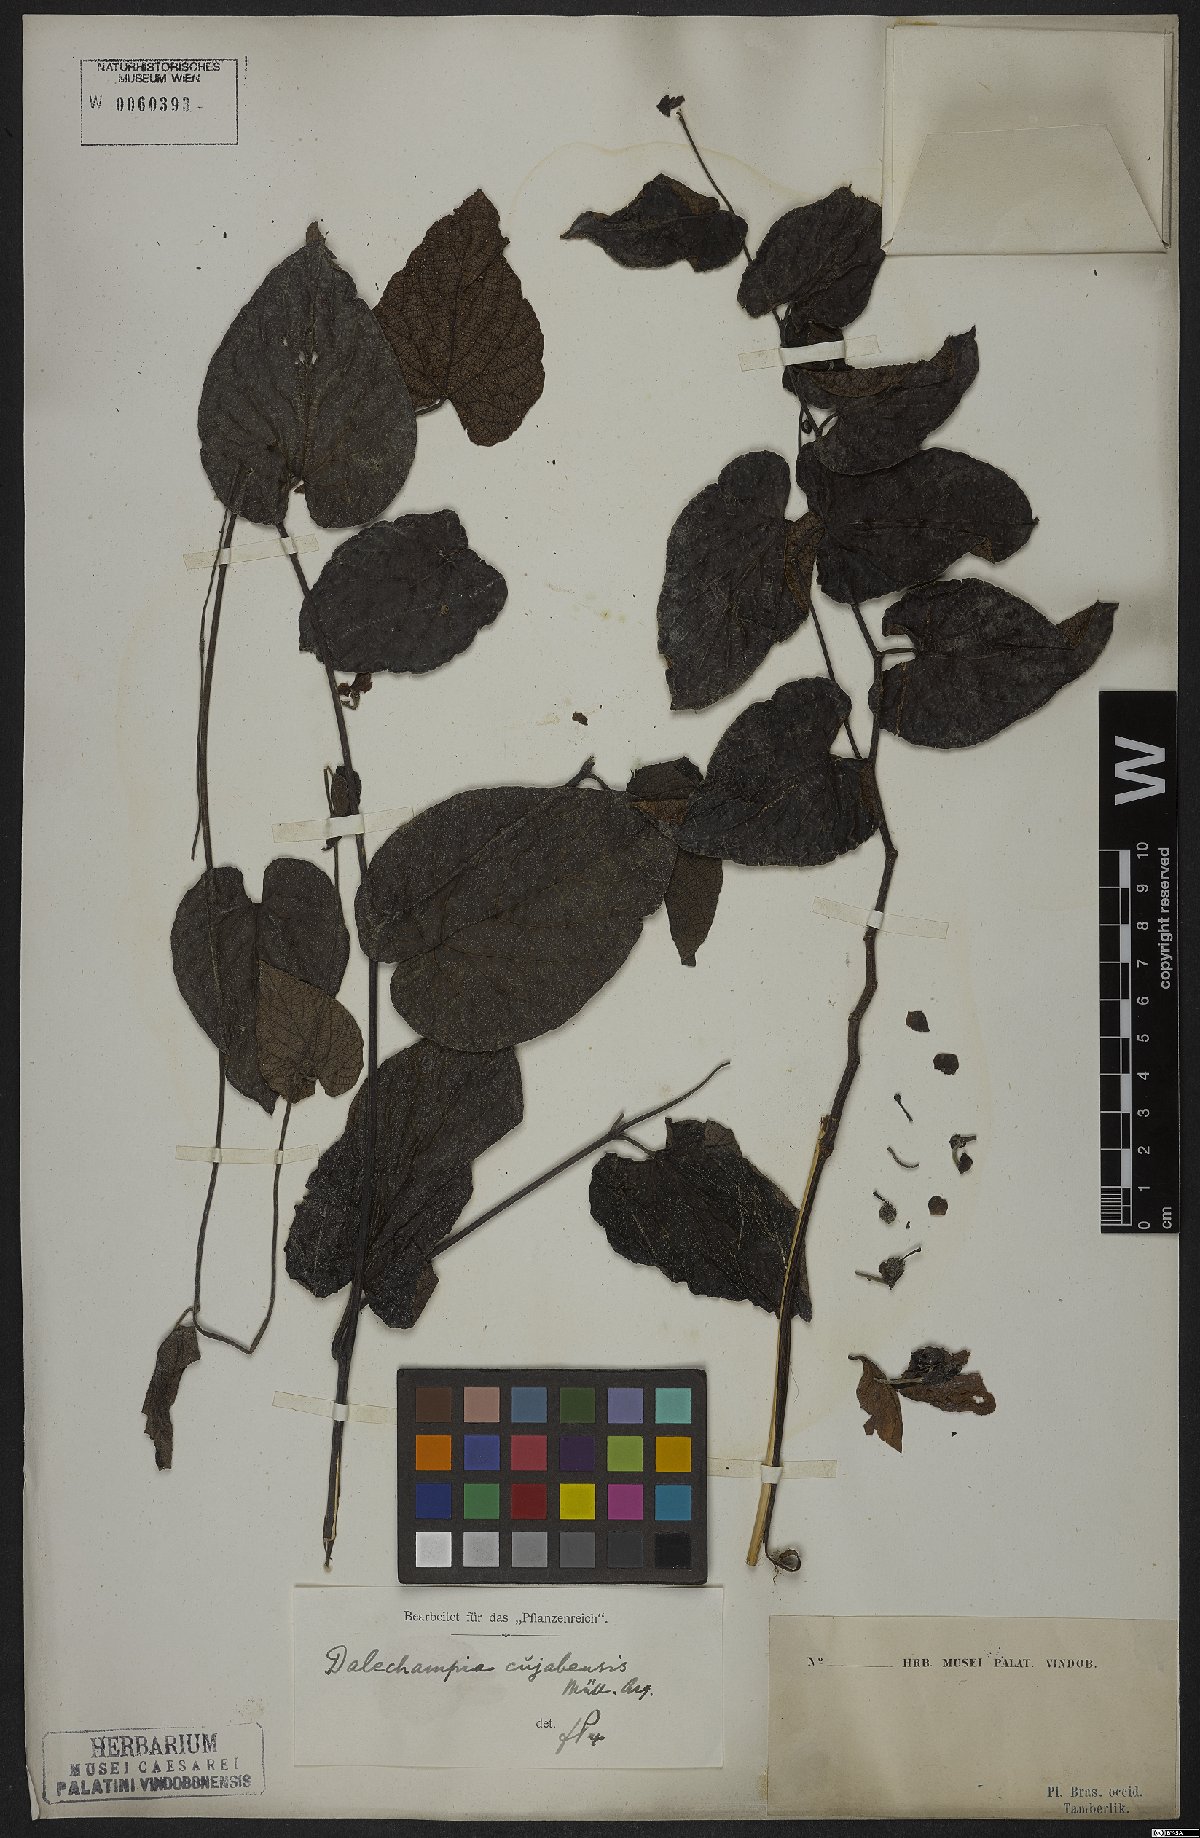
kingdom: Plantae
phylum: Tracheophyta
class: Magnoliopsida
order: Malpighiales
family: Euphorbiaceae
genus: Dalechampia
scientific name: Dalechampia cuyabensis
